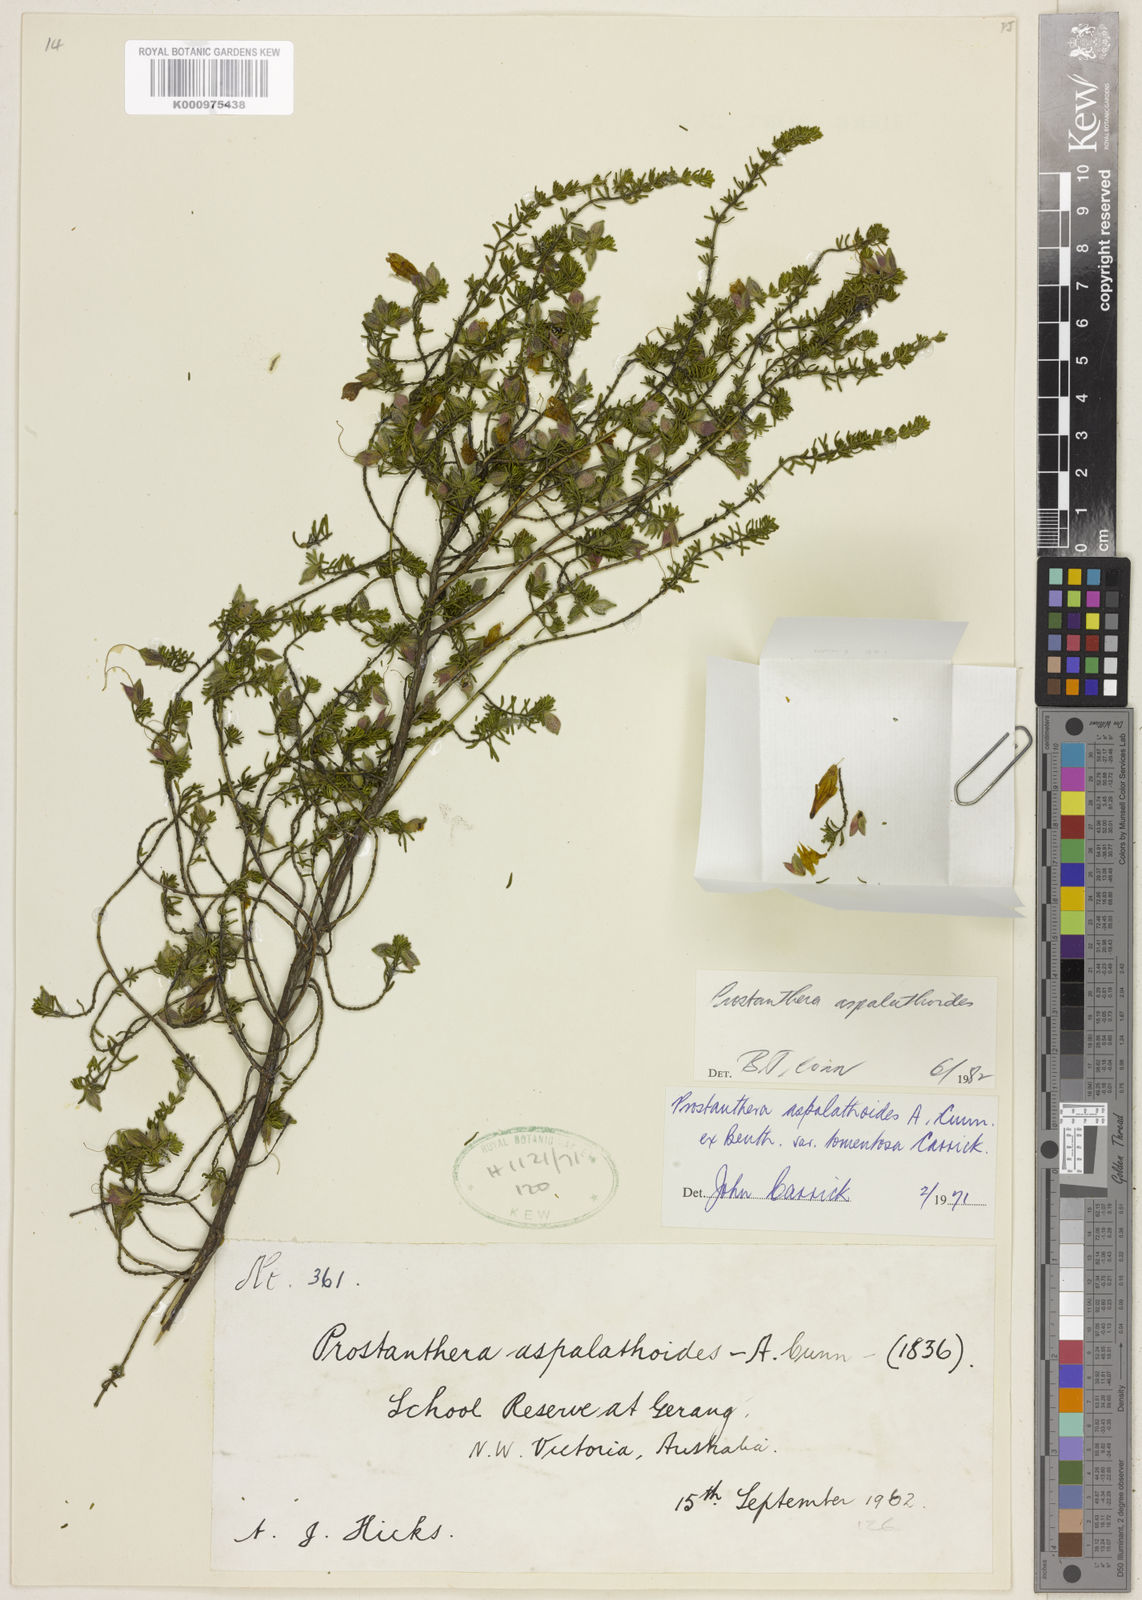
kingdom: Plantae
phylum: Tracheophyta
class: Magnoliopsida
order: Lamiales
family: Lamiaceae
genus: Prostanthera
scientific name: Prostanthera aspalathoides
